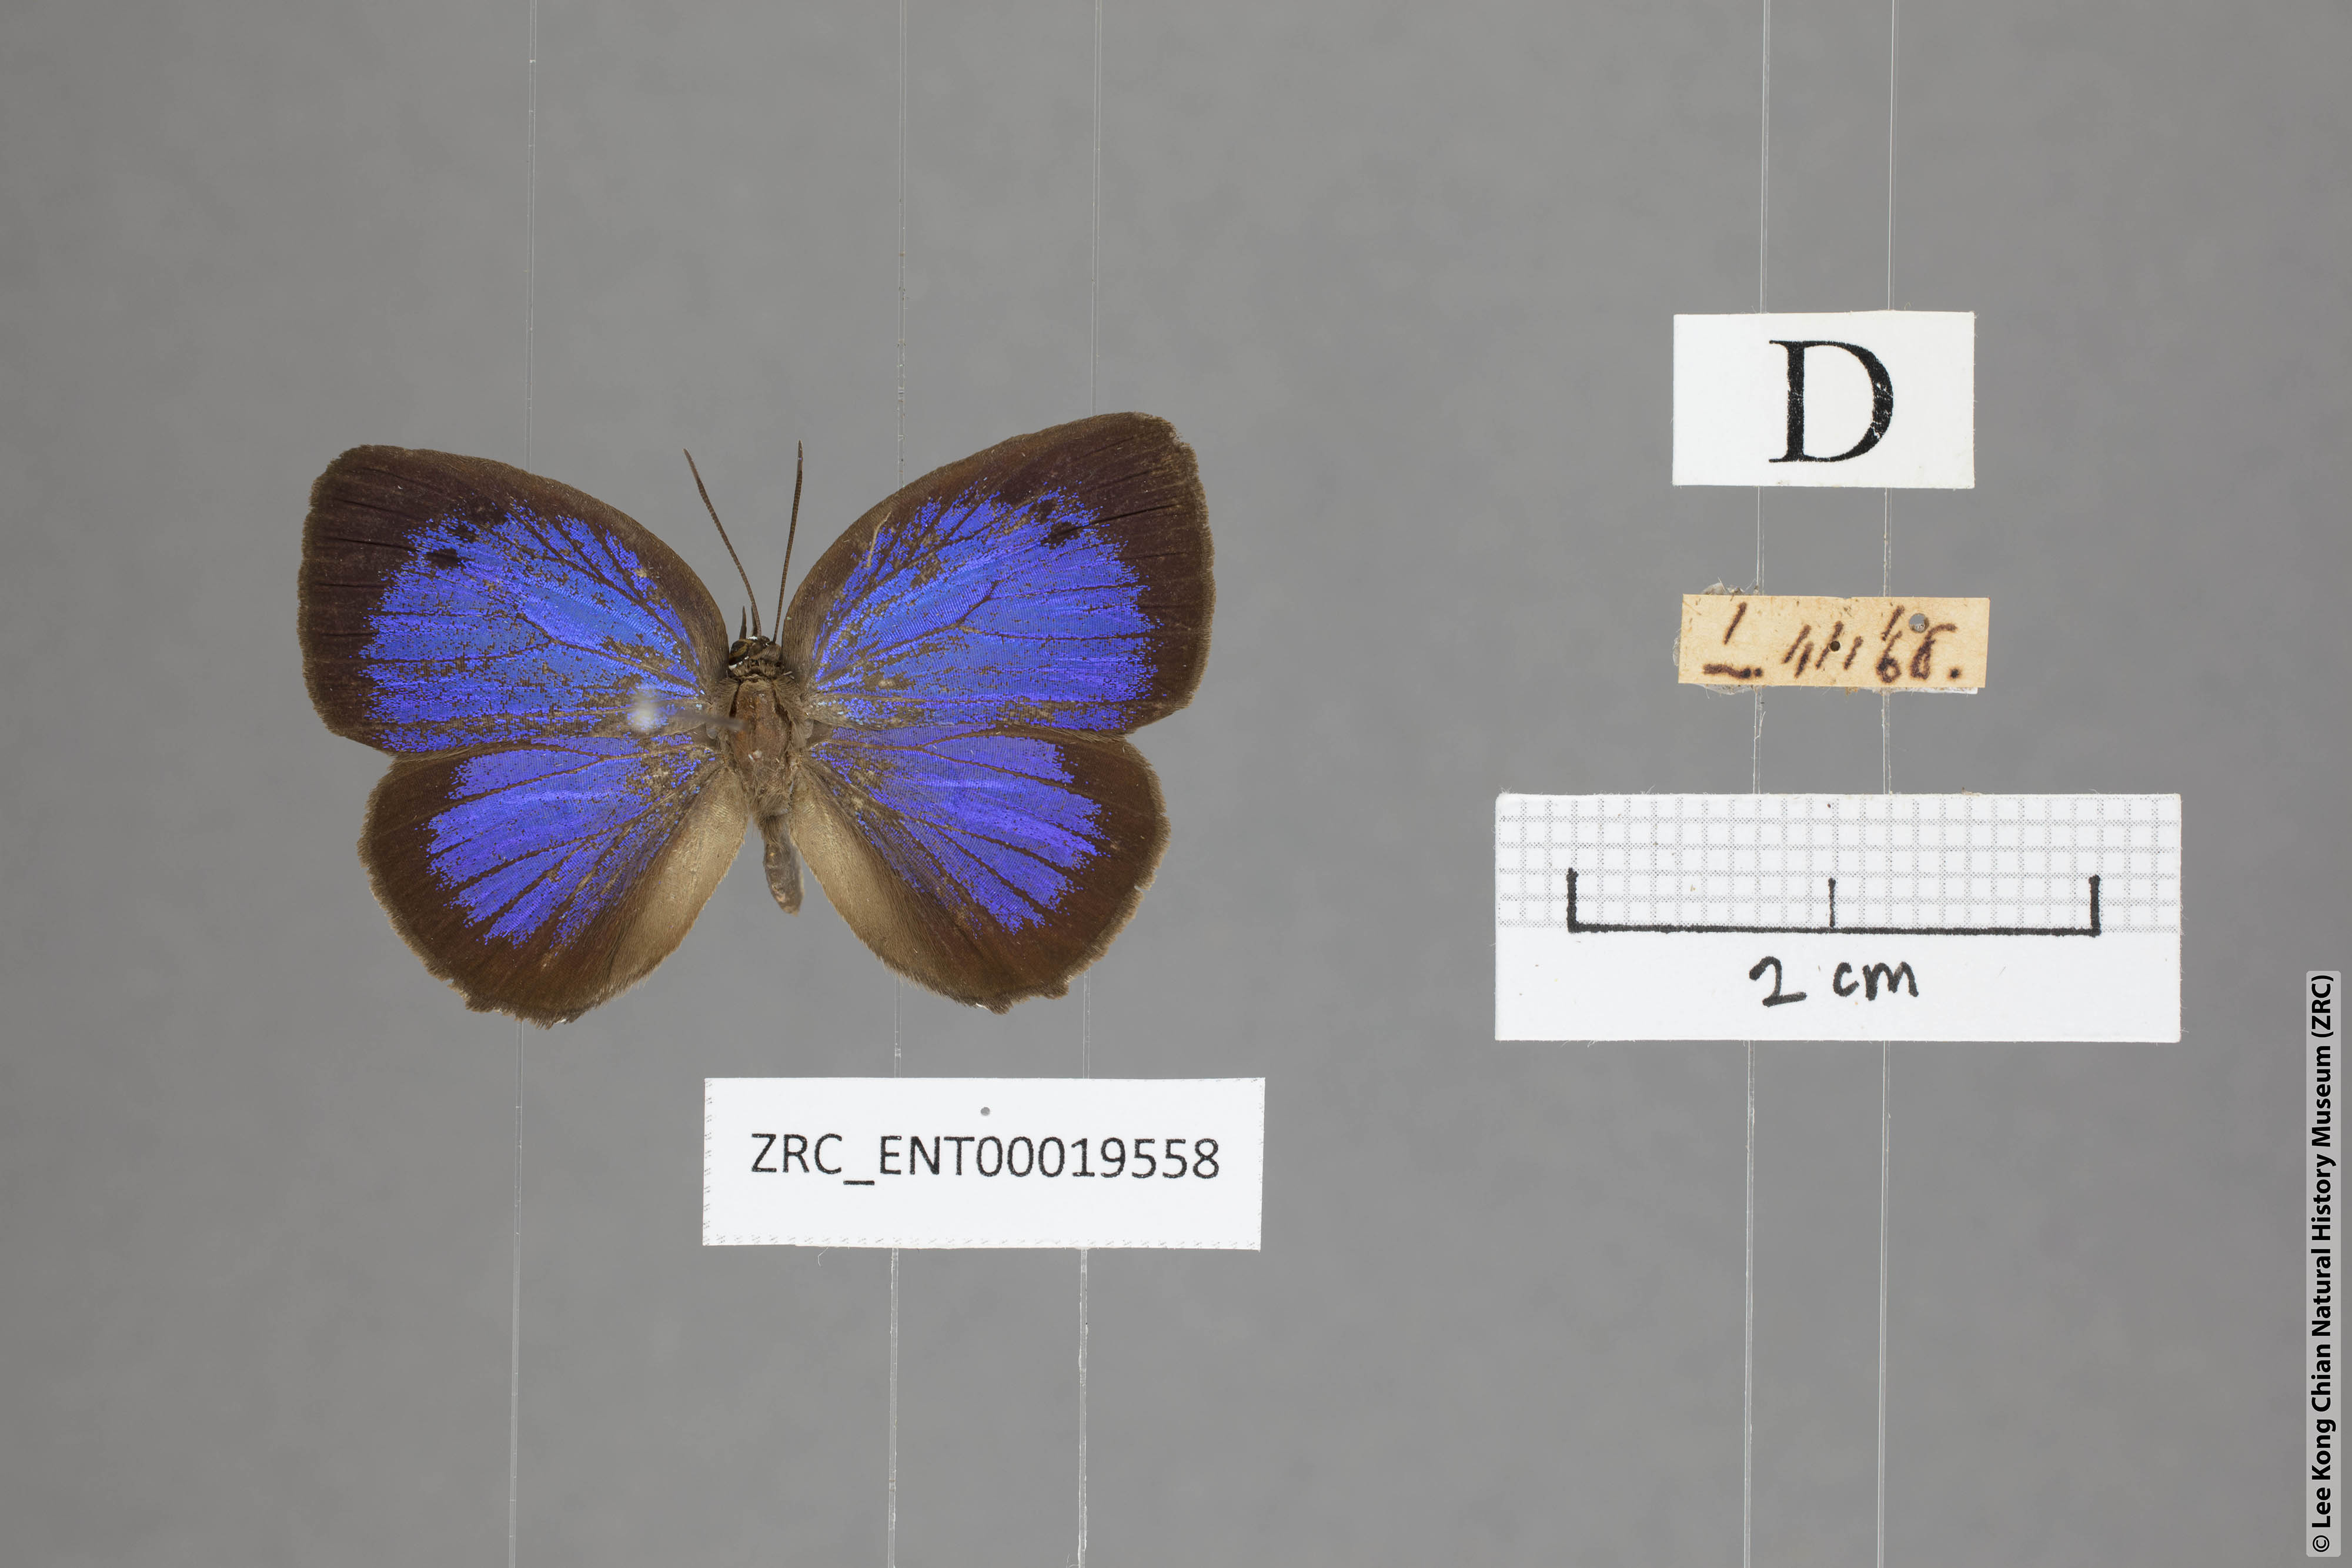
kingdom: Animalia
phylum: Arthropoda
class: Insecta
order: Lepidoptera
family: Lycaenidae
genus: Arhopala
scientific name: Arhopala hypomuta
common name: Violet oakblue
